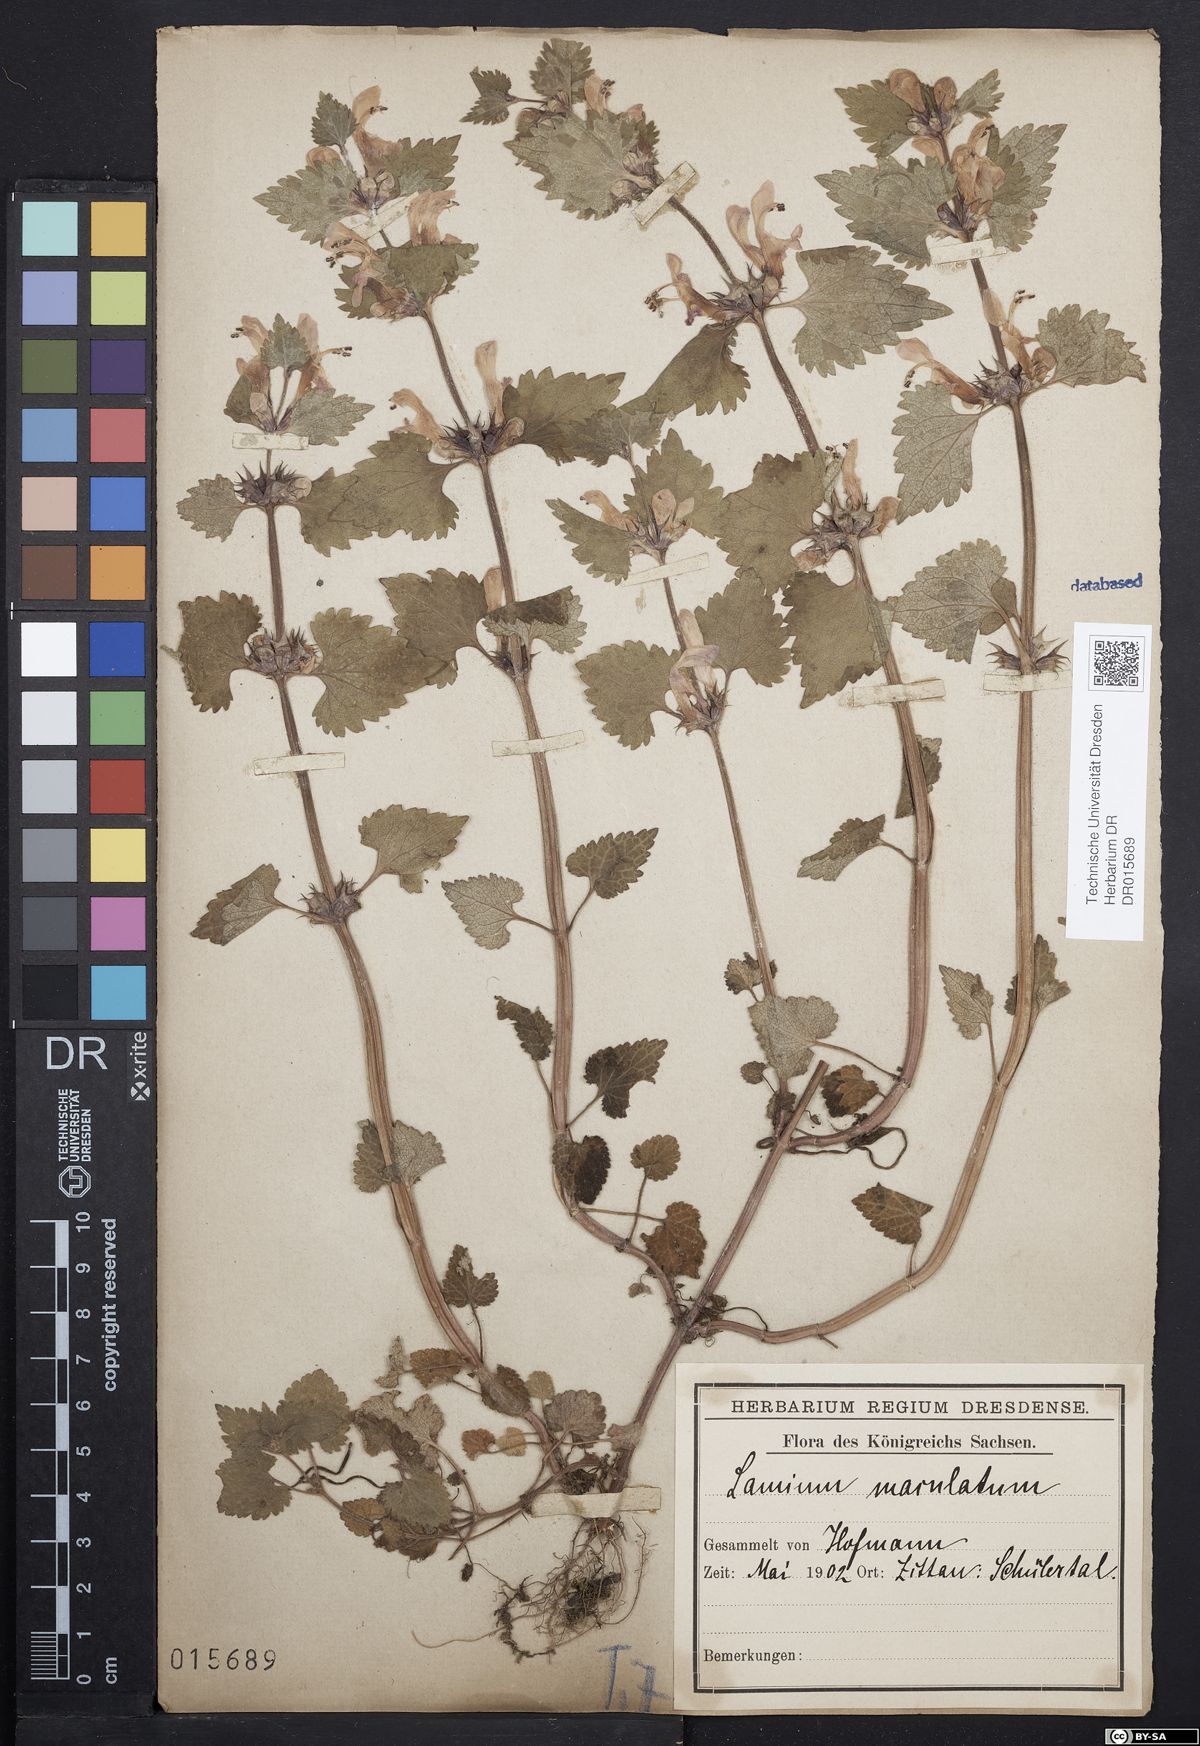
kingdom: Plantae
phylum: Tracheophyta
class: Magnoliopsida
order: Lamiales
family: Lamiaceae
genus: Lamium
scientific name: Lamium maculatum
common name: Spotted dead-nettle
